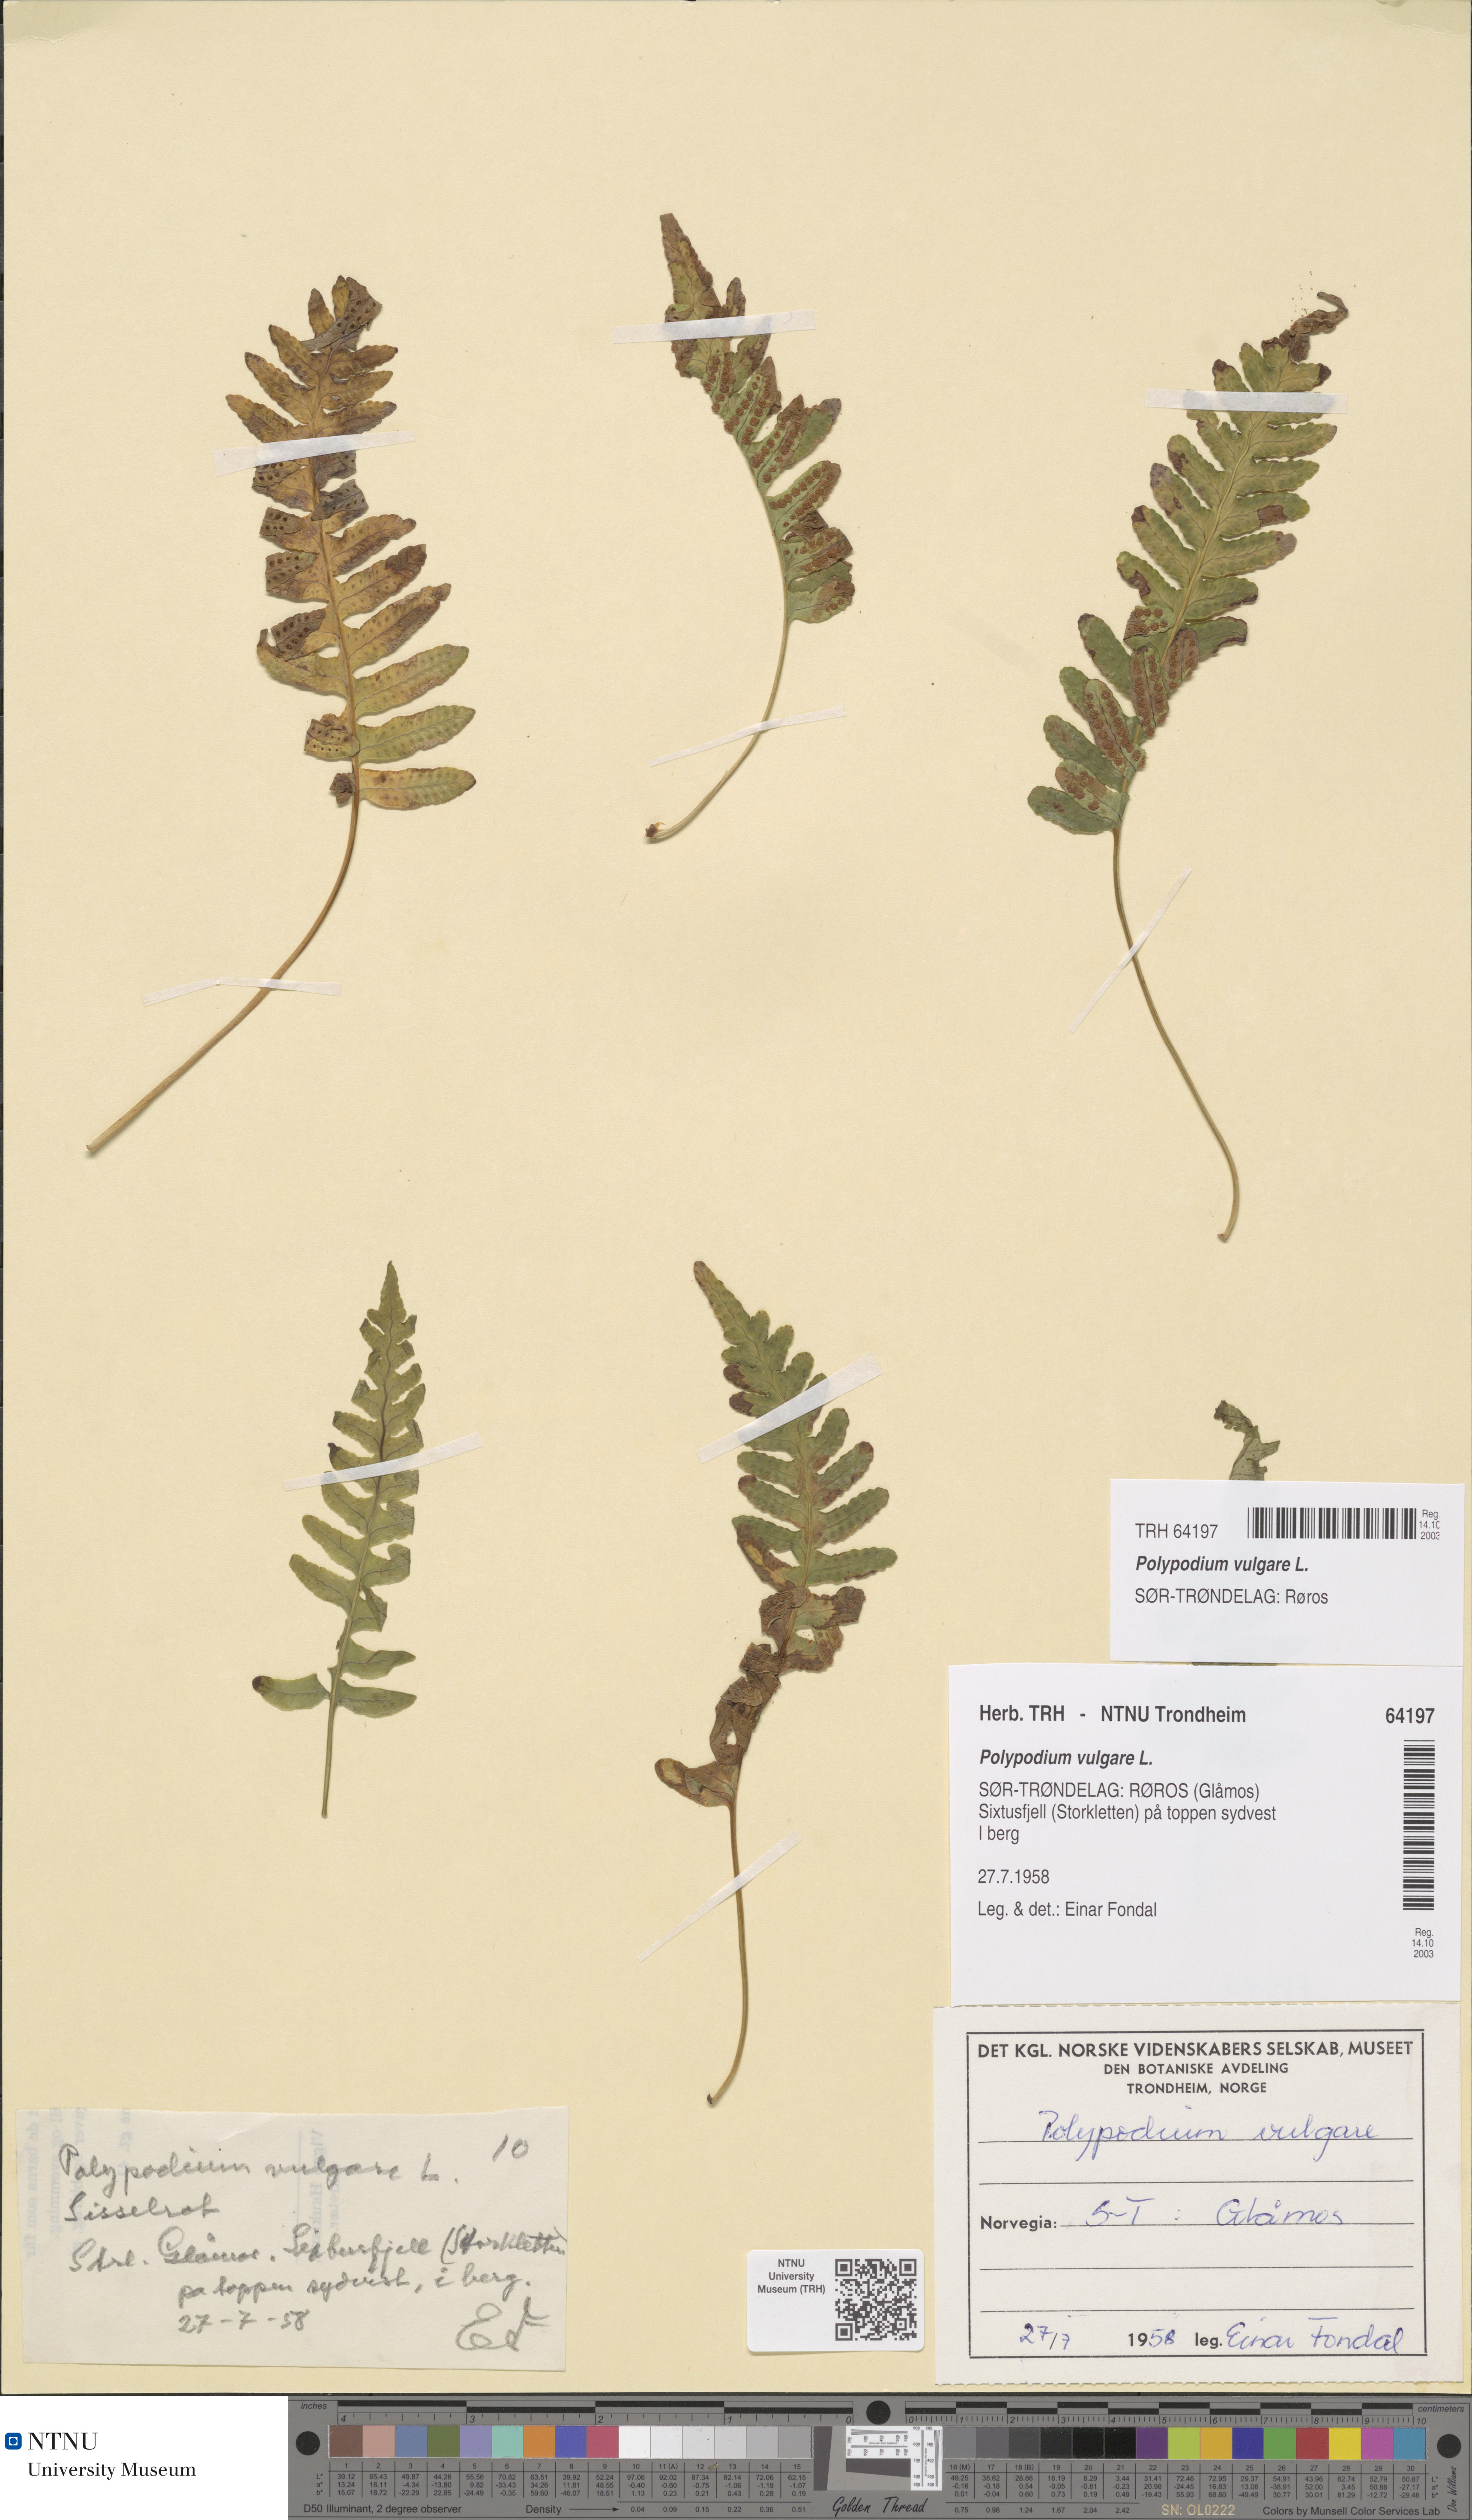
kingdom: Plantae
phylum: Tracheophyta
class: Polypodiopsida
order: Polypodiales
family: Polypodiaceae
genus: Polypodium
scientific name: Polypodium vulgare
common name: Common polypody
